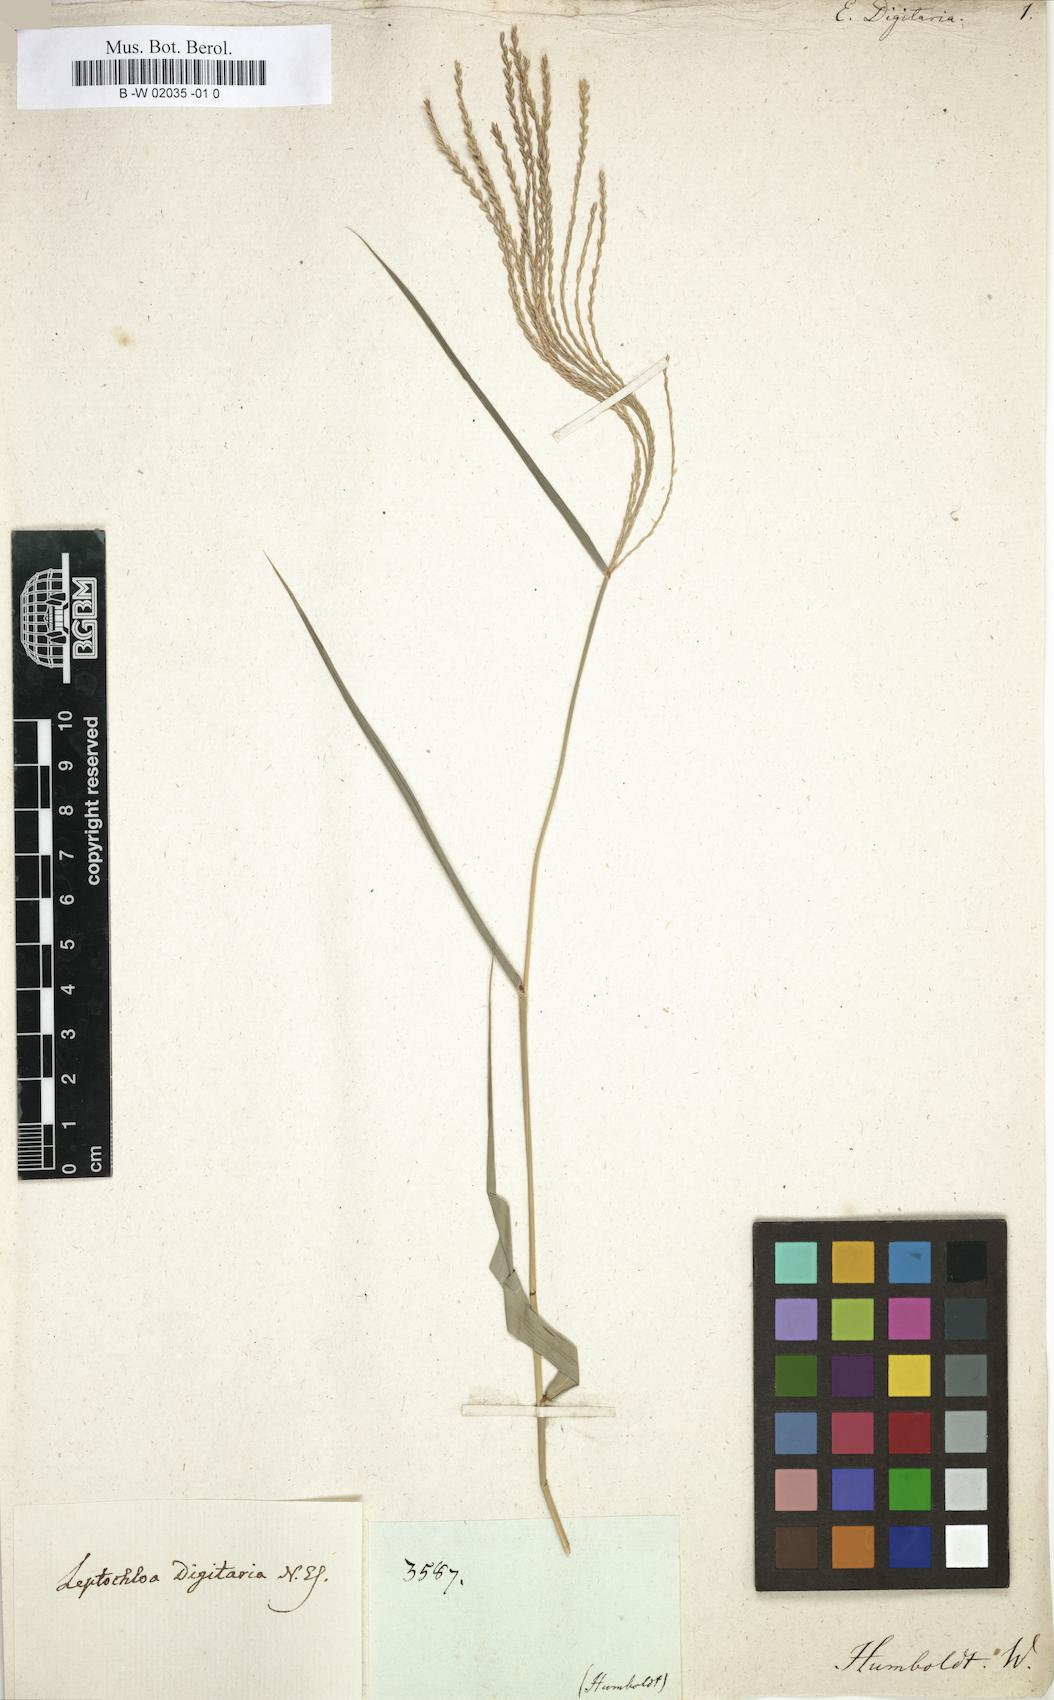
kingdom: Plantae
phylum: Tracheophyta
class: Liliopsida
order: Poales
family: Poaceae
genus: Leptochloa
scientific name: Leptochloa virgata
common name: Tropical sprangletop
